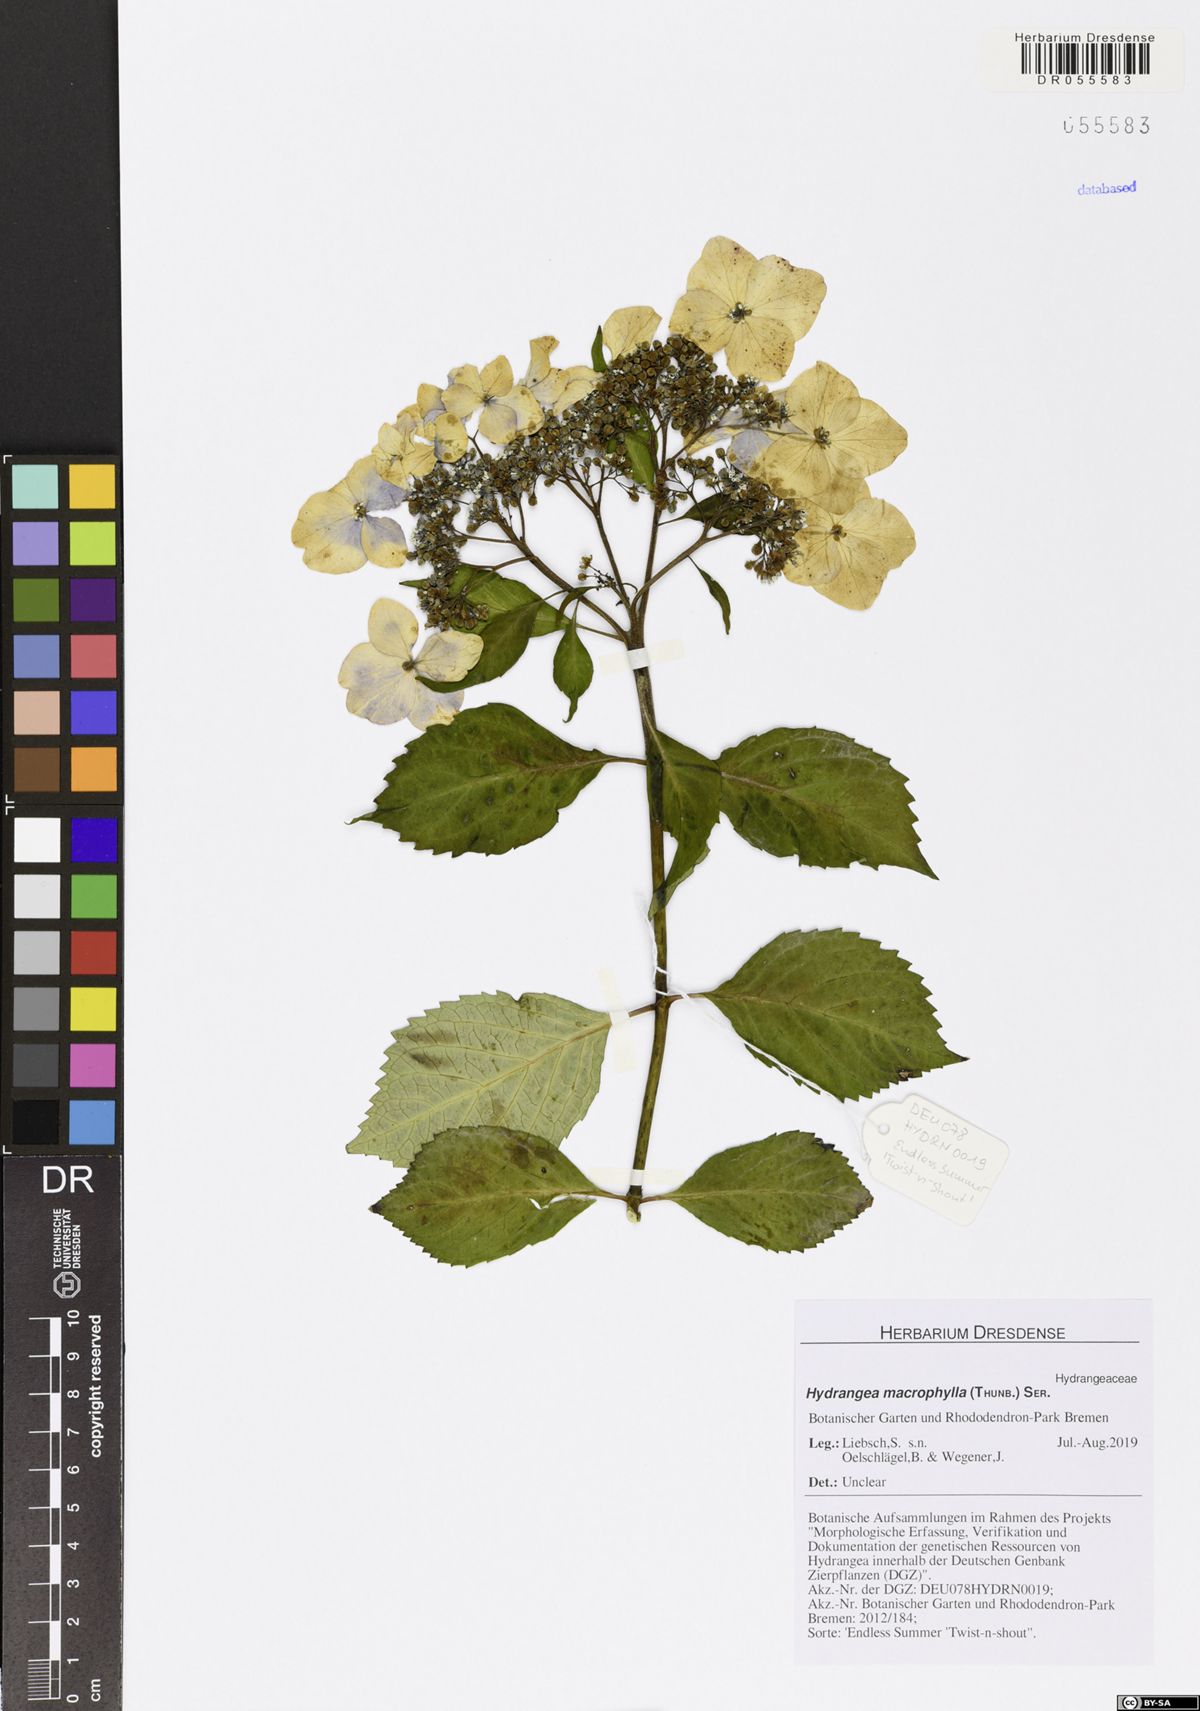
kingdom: Plantae
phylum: Tracheophyta
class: Magnoliopsida
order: Cornales
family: Hydrangeaceae
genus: Hydrangea
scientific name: Hydrangea macrophylla
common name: Hydrangea
